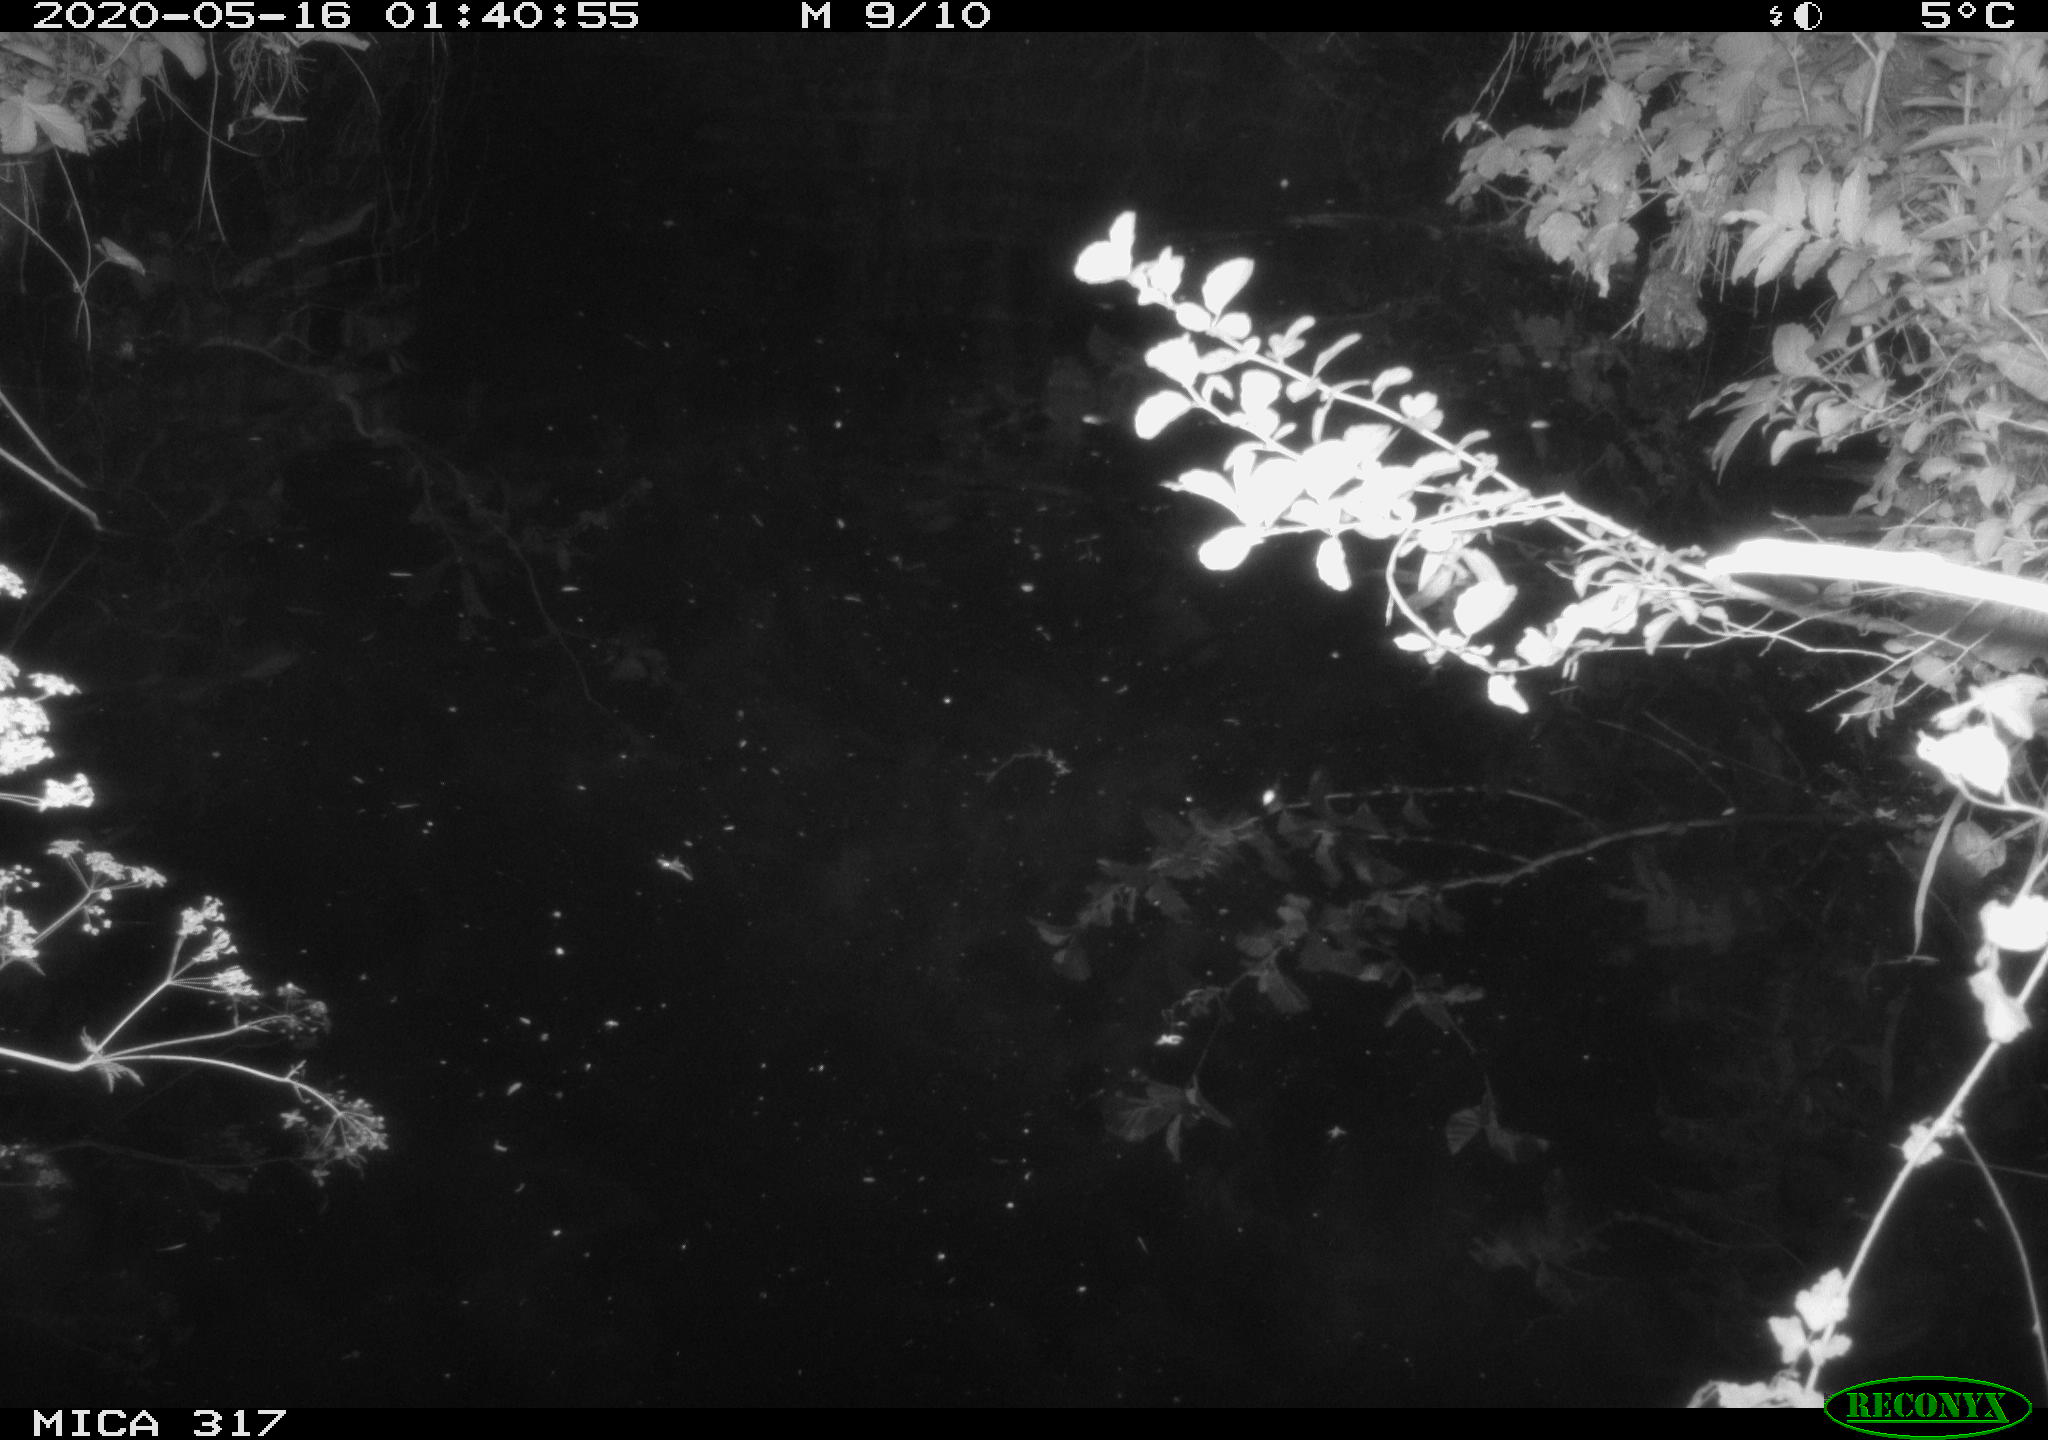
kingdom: Animalia
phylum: Chordata
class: Aves
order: Anseriformes
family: Anatidae
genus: Anas
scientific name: Anas platyrhynchos
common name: Mallard
